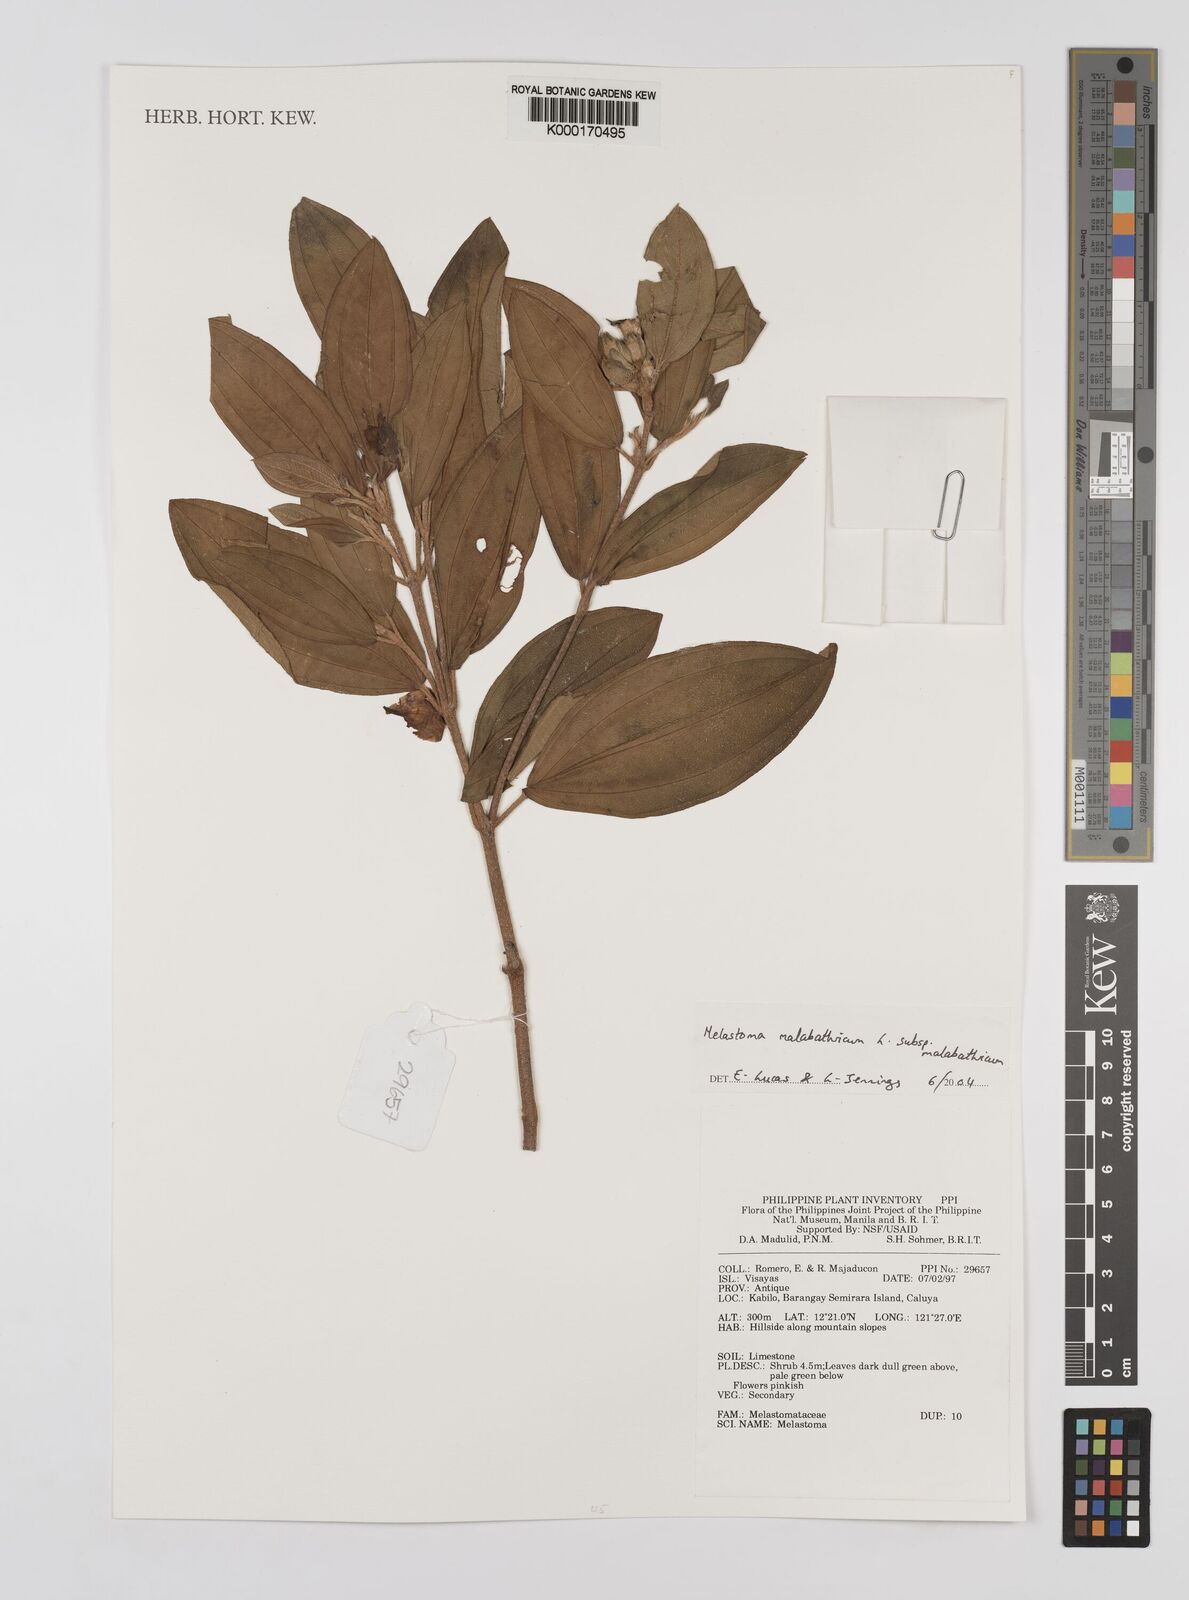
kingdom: Plantae
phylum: Tracheophyta
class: Magnoliopsida
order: Myrtales
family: Melastomataceae
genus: Melastoma
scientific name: Melastoma malabathricum
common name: Indian-rhododendron
